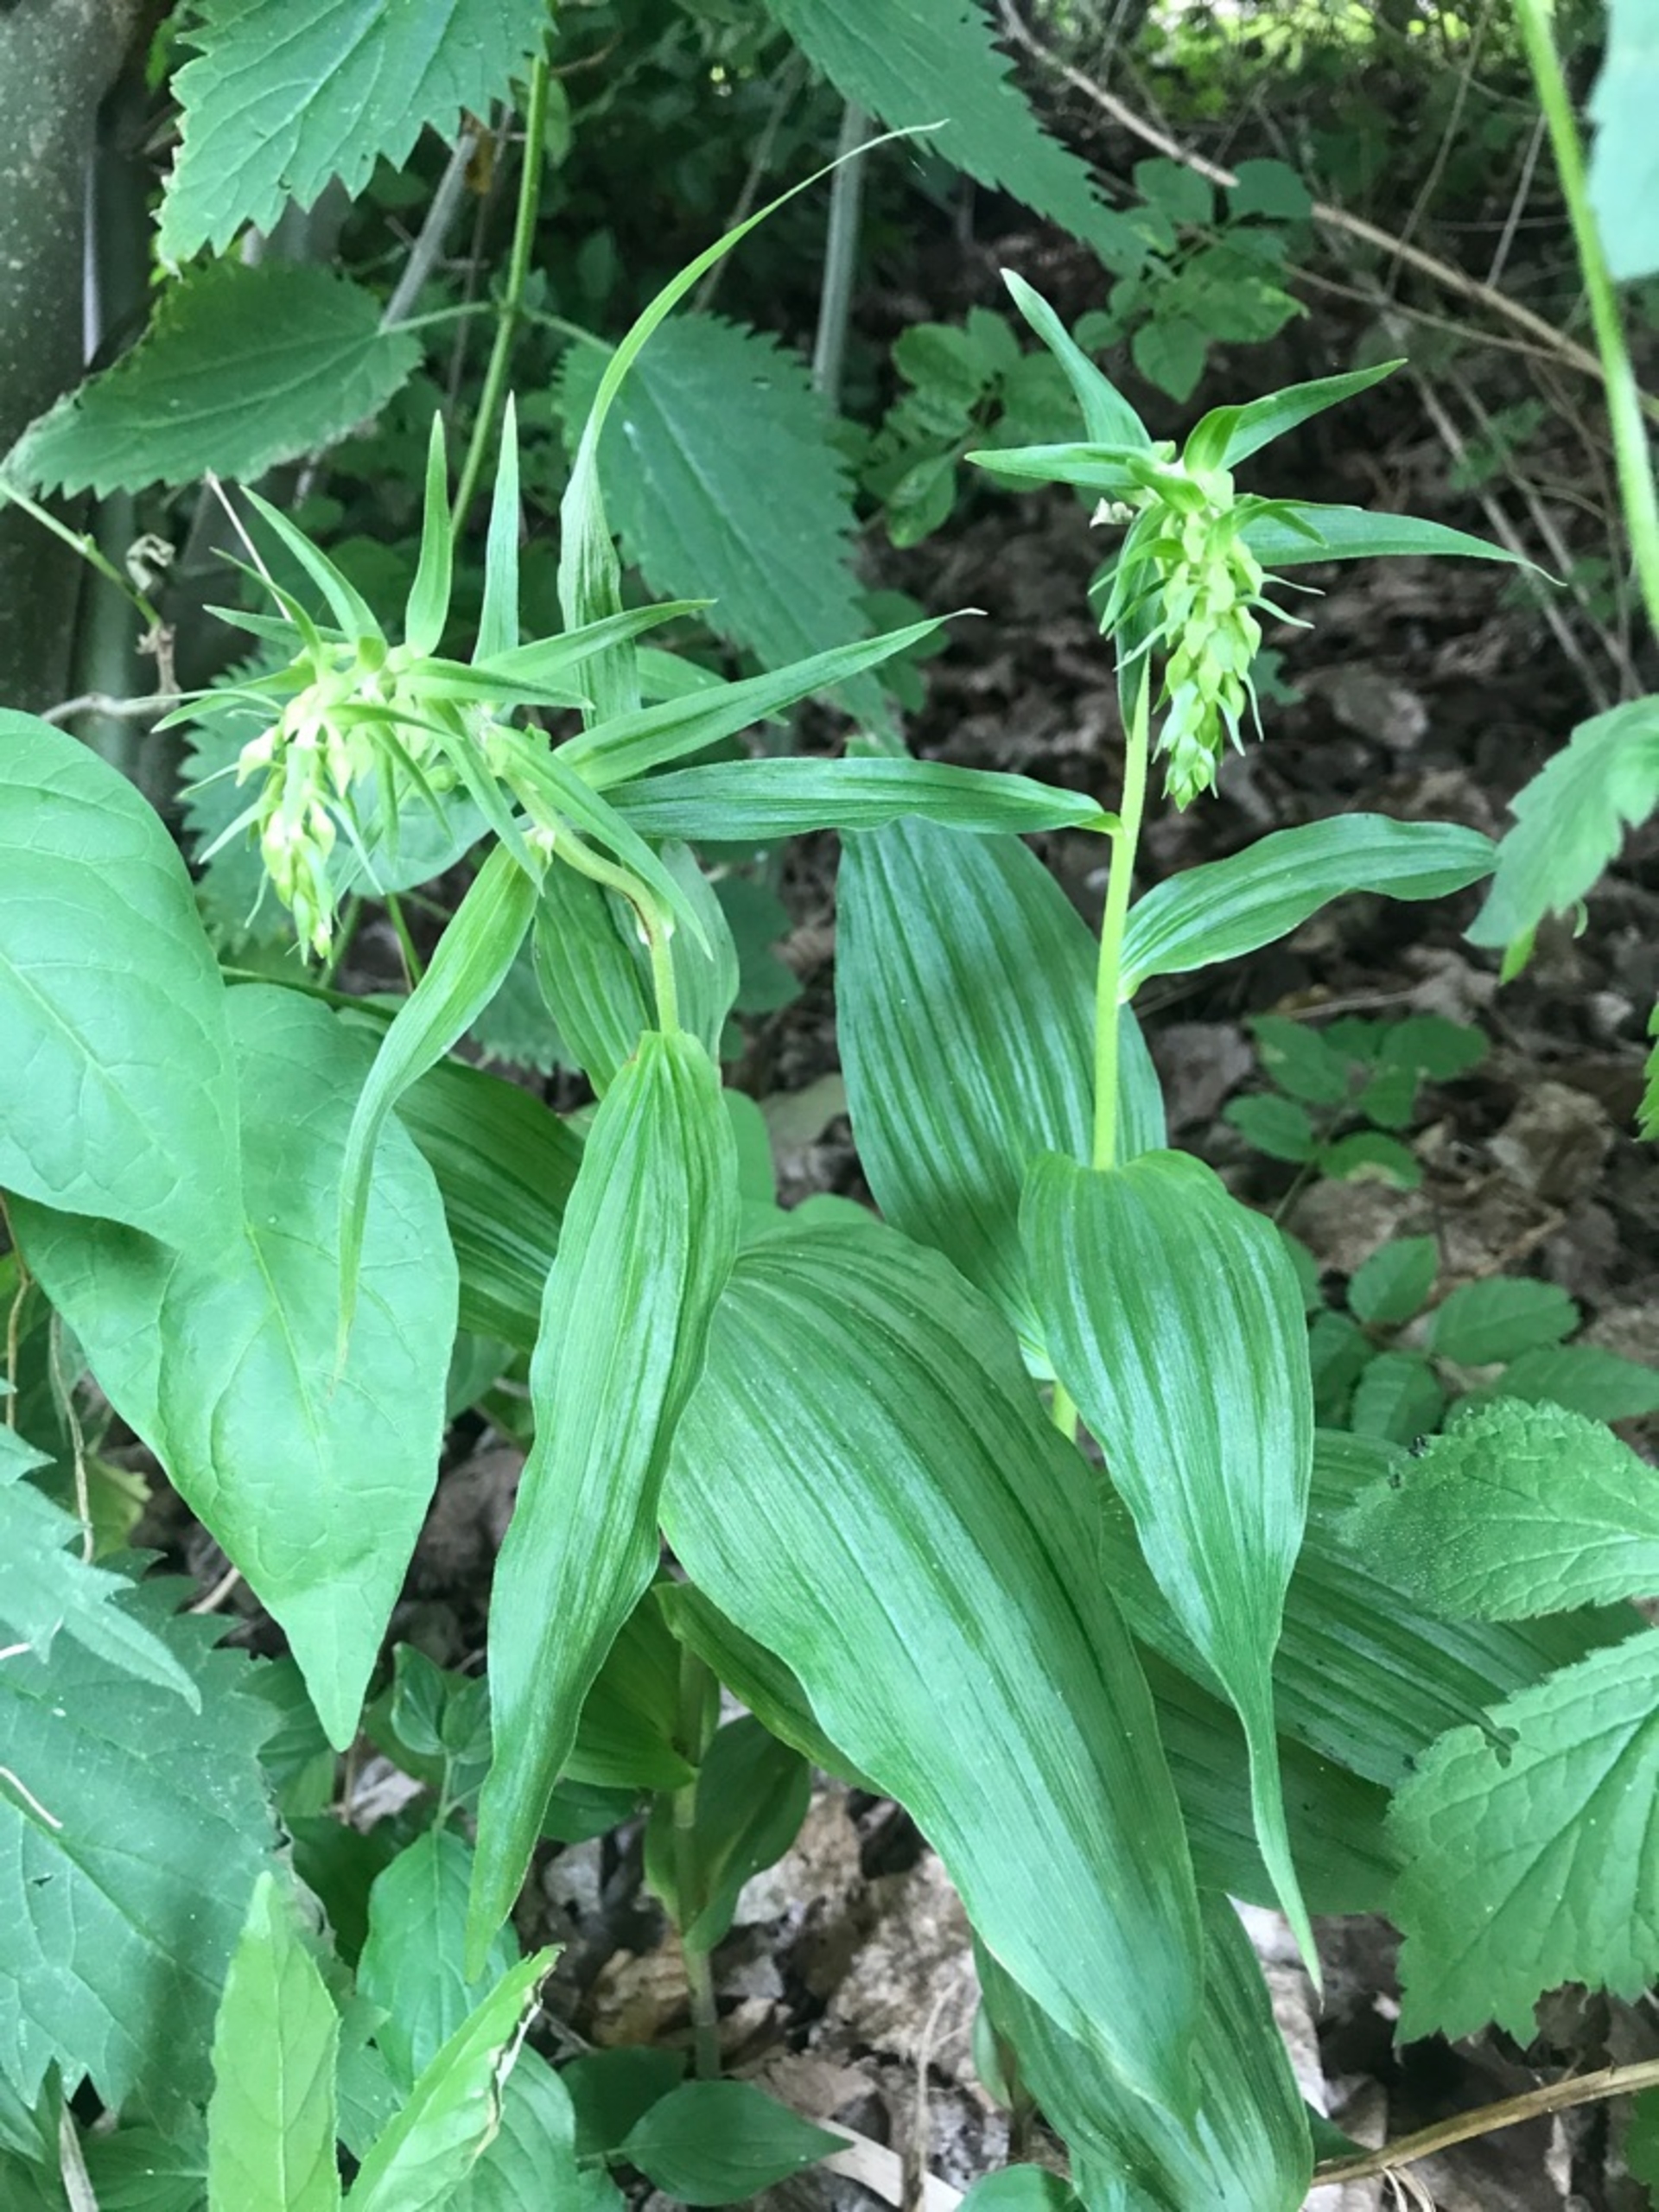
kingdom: Plantae
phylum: Tracheophyta
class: Liliopsida
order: Asparagales
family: Orchidaceae
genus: Epipactis
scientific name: Epipactis helleborine
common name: Skov-hullæbe
